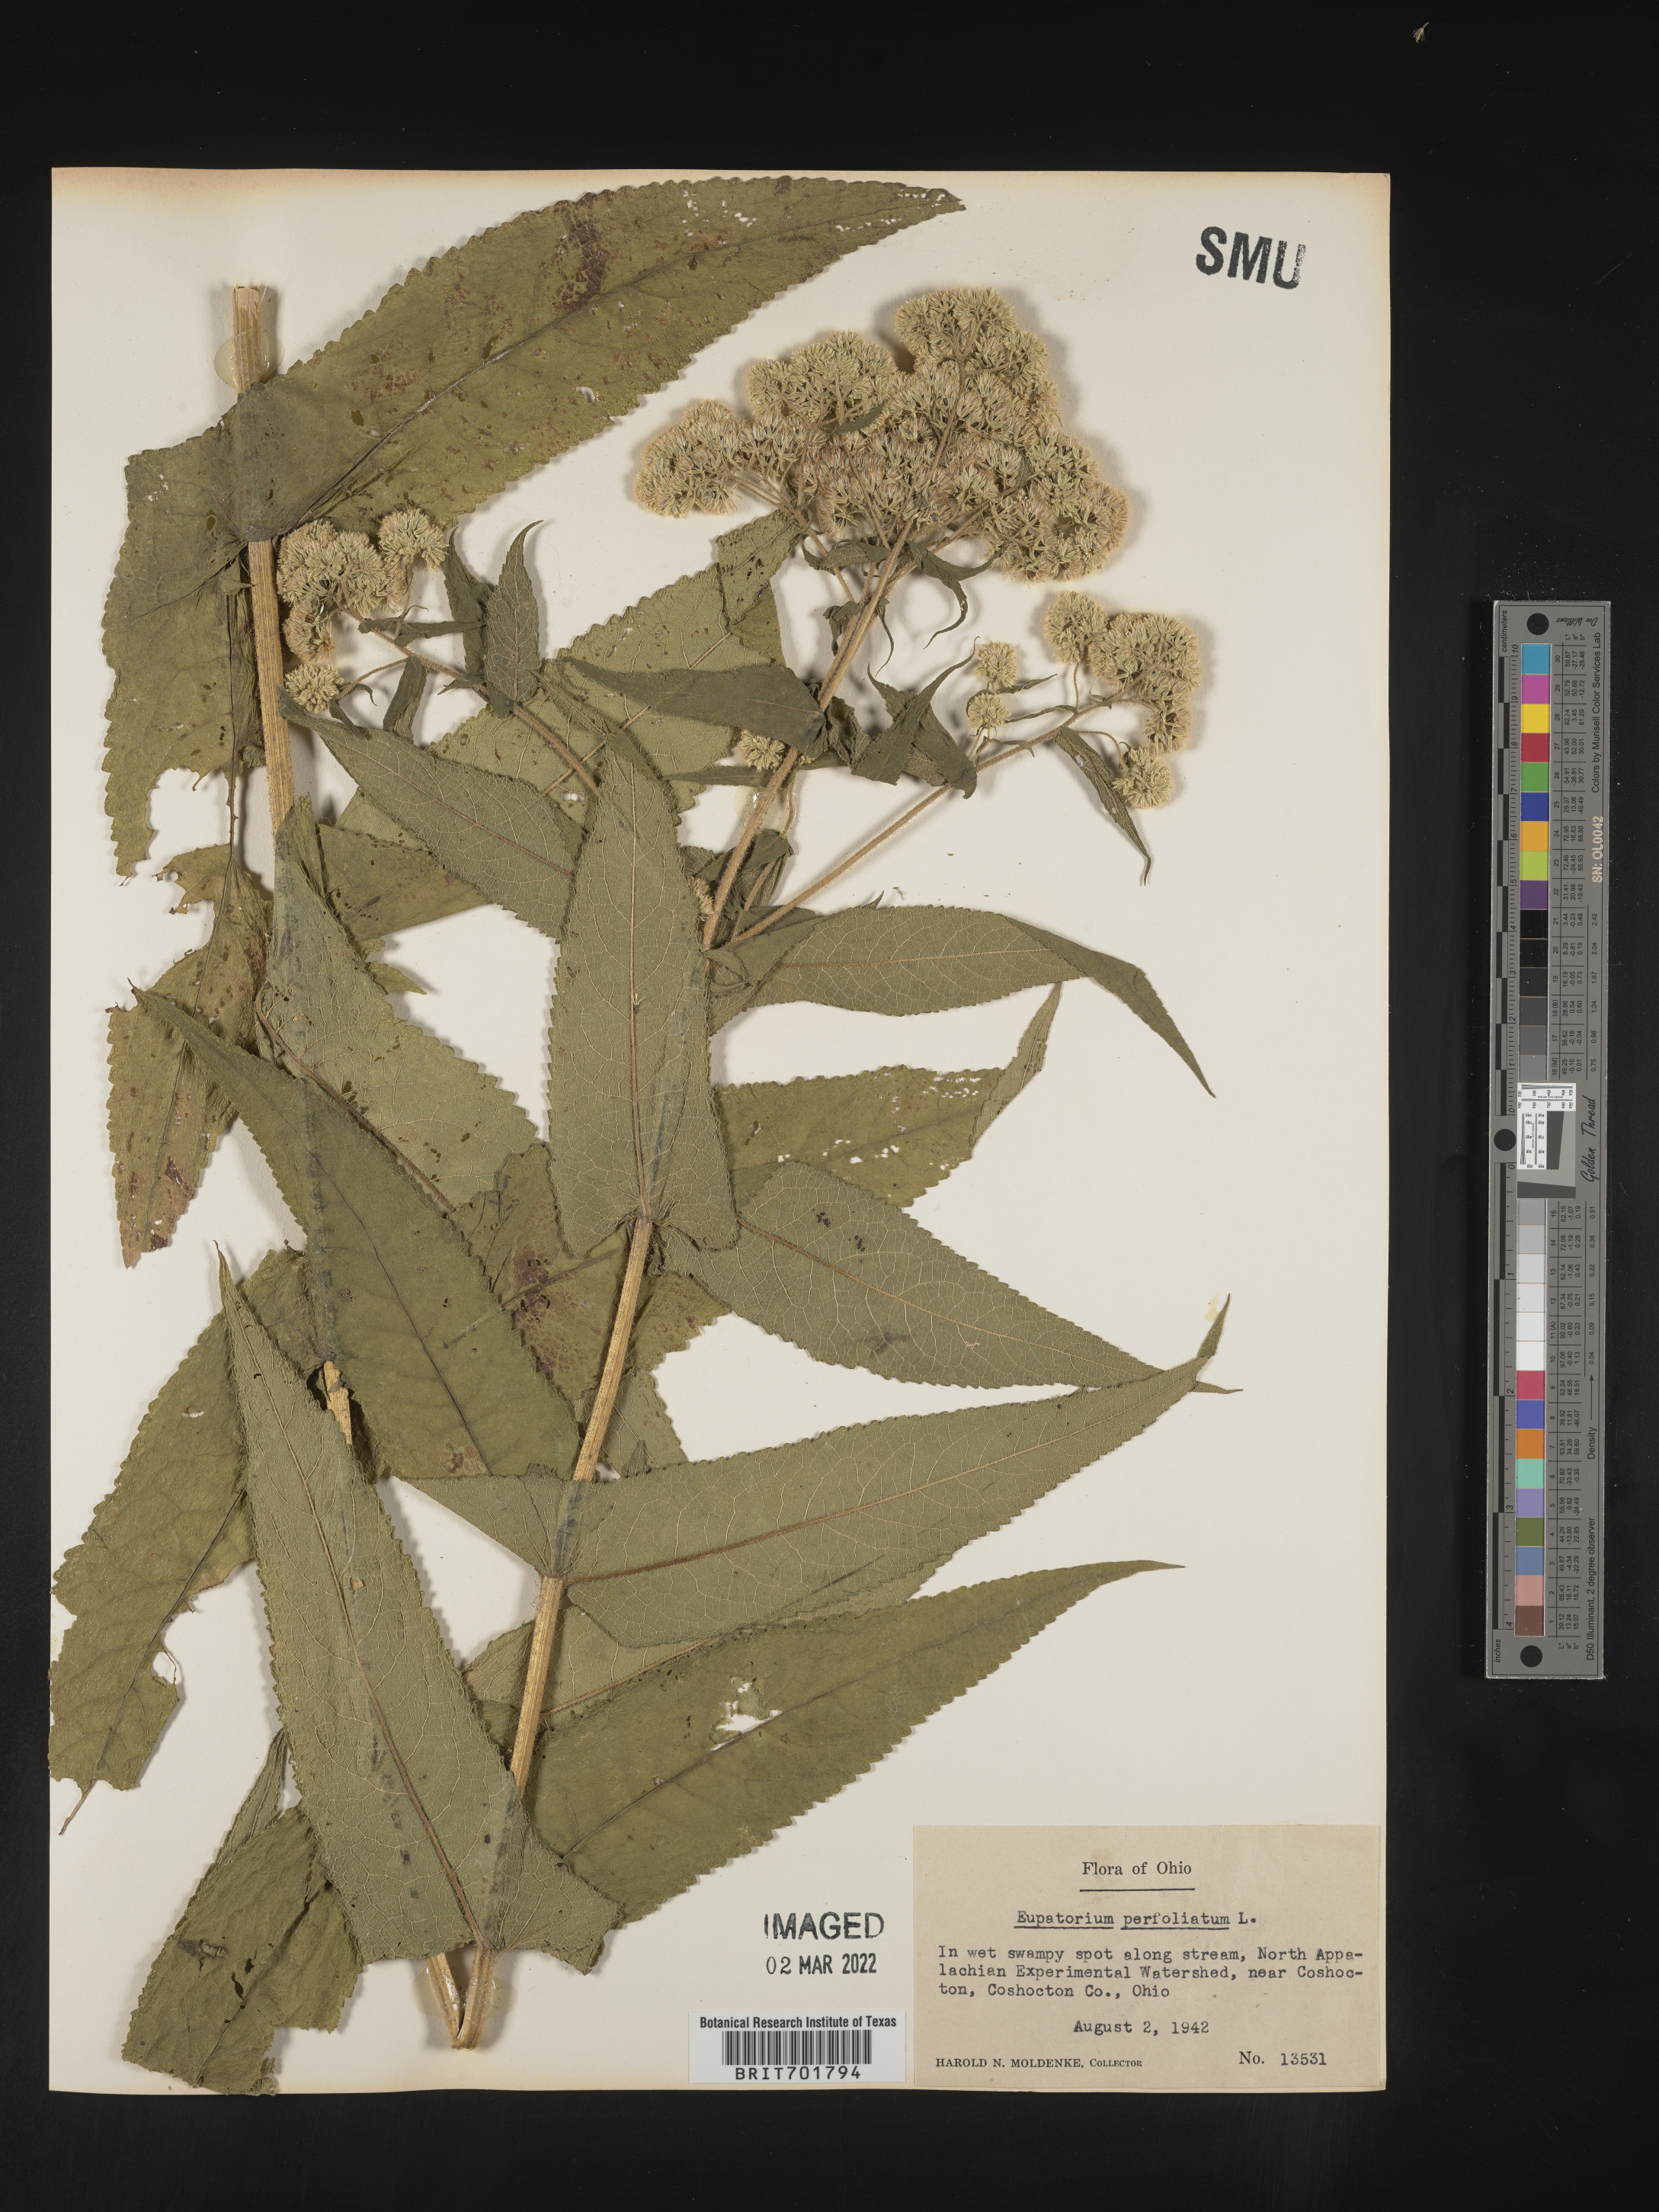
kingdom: Plantae
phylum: Tracheophyta
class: Magnoliopsida
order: Asterales
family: Asteraceae
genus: Eupatorium
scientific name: Eupatorium perfoliatum
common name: Boneset
